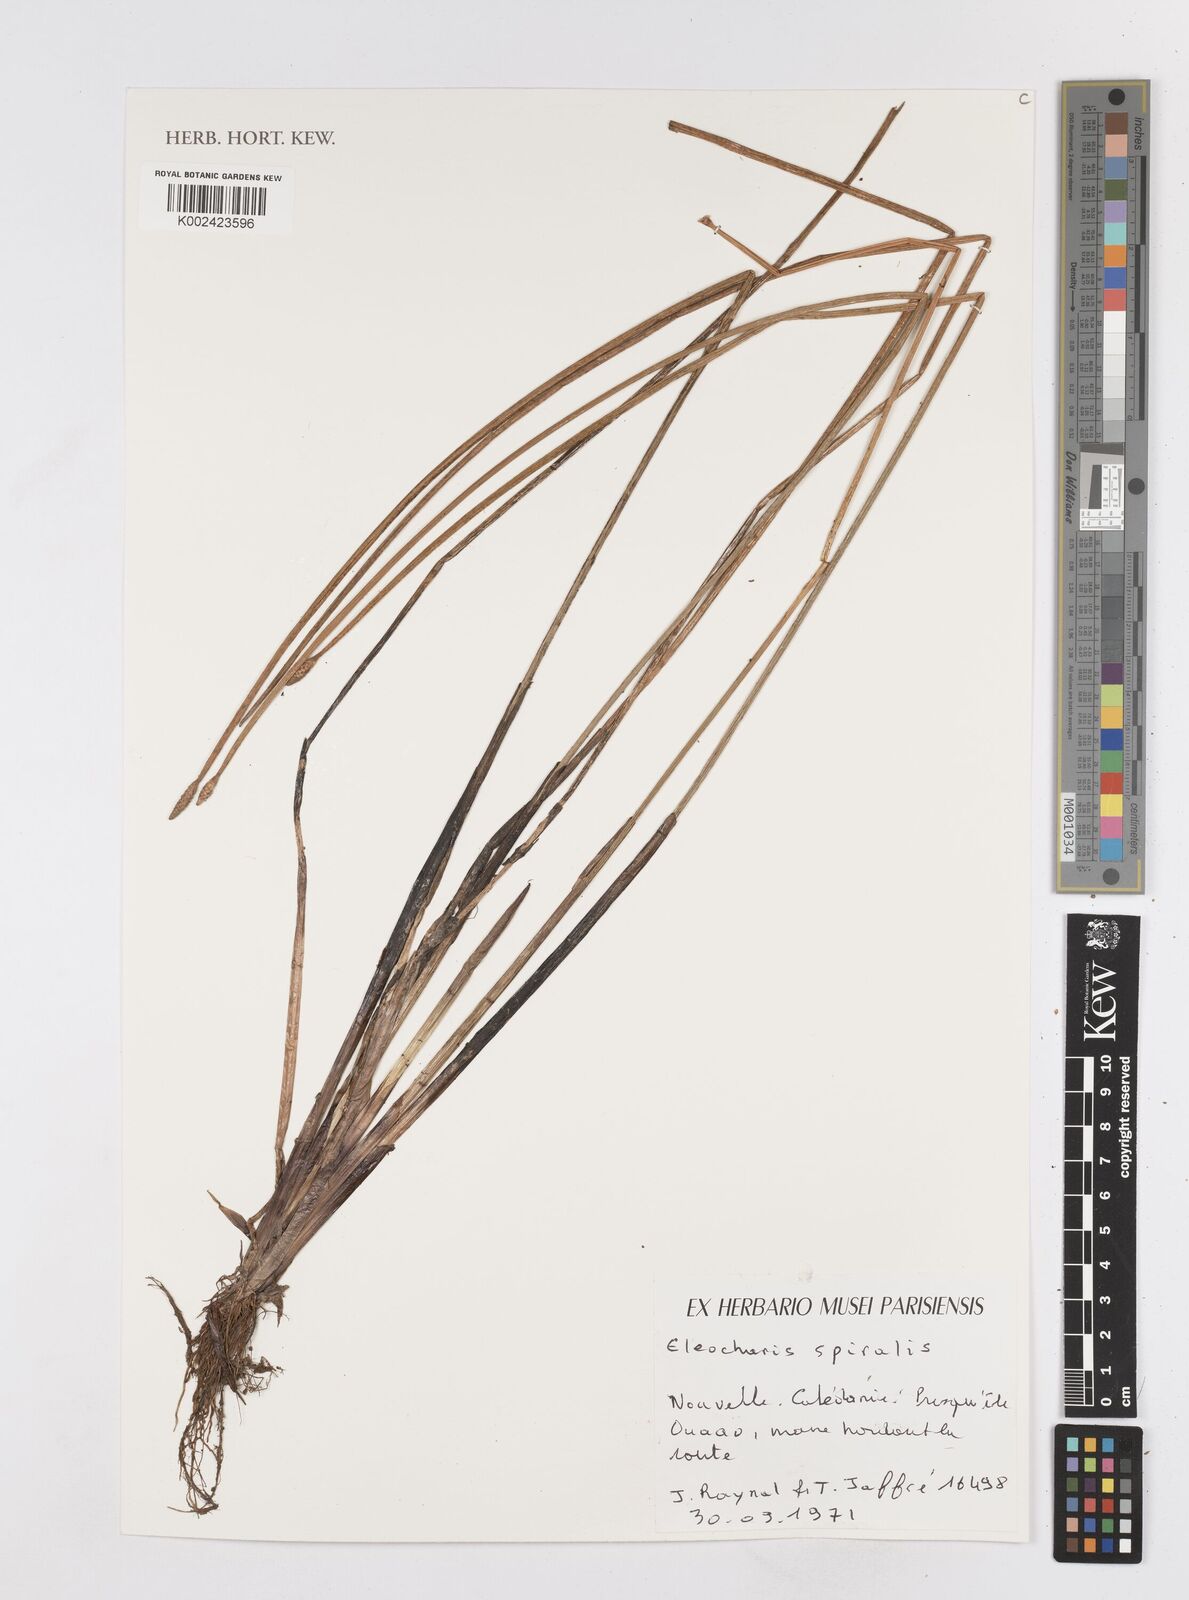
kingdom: Plantae
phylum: Tracheophyta
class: Liliopsida
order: Poales
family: Cyperaceae
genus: Eleocharis
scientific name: Eleocharis spiralis
